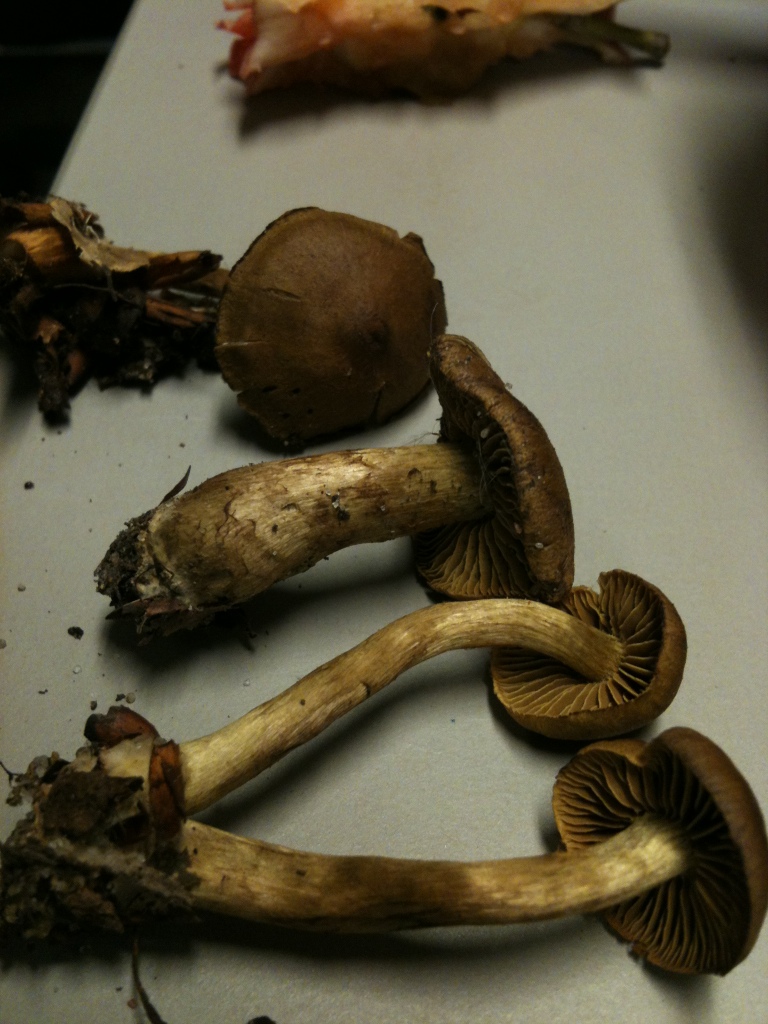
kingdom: Fungi
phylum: Basidiomycota
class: Agaricomycetes
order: Agaricales
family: Cortinariaceae
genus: Cortinarius
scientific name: Cortinarius olivaceofuscus
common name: olivenbrun slørhat
